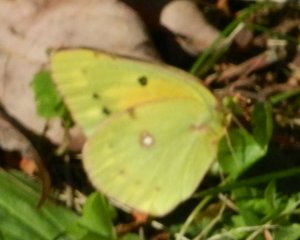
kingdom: Animalia
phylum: Arthropoda
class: Insecta
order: Lepidoptera
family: Pieridae
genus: Colias
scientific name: Colias eurytheme
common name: Orange Sulphur
